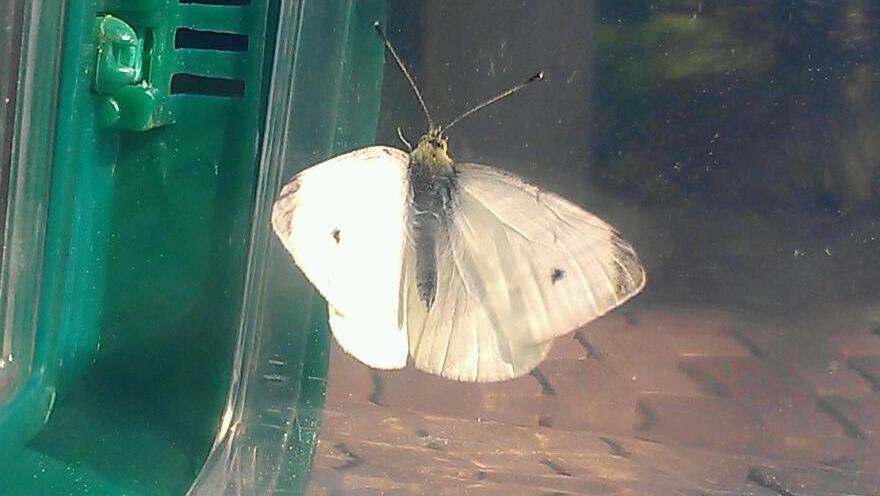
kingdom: Animalia
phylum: Arthropoda
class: Insecta
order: Lepidoptera
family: Pieridae
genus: Pieris
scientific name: Pieris rapae
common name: Cabbage White
